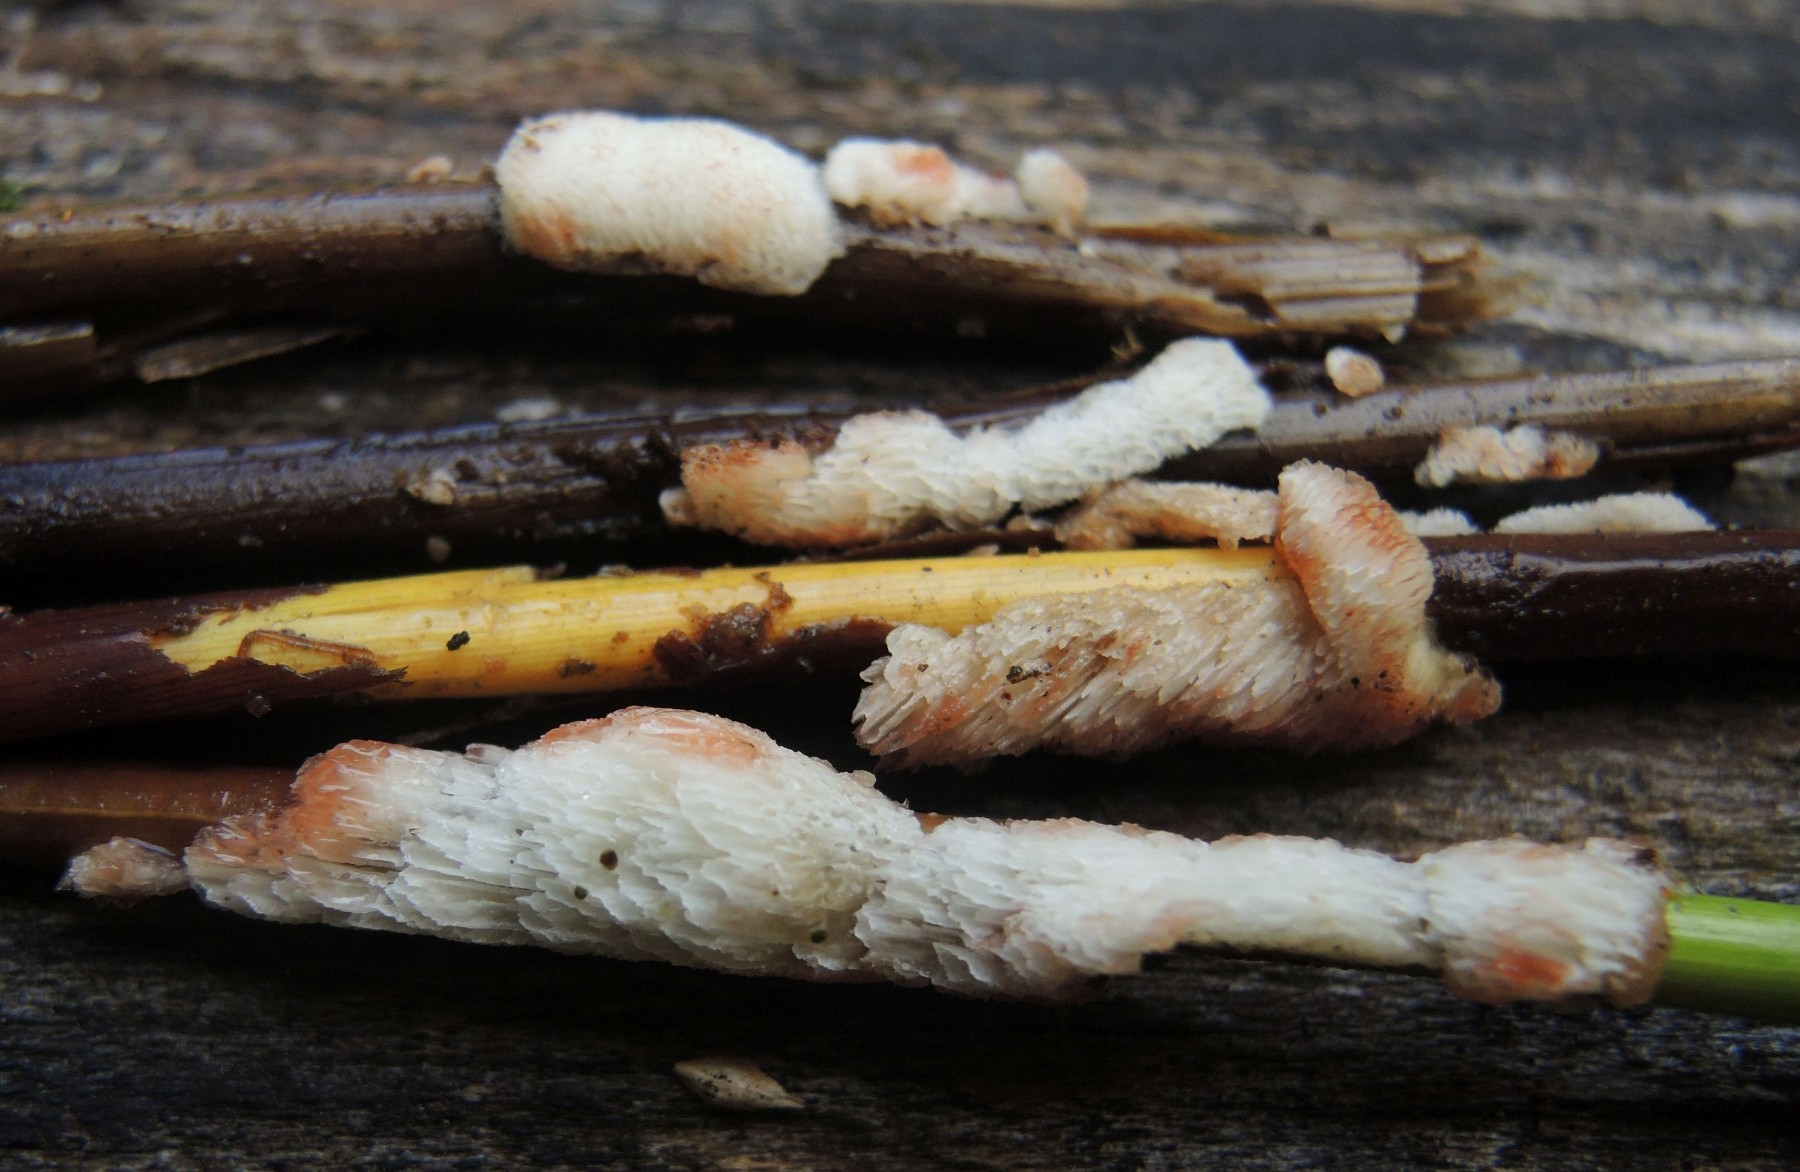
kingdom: Fungi
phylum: Basidiomycota
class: Agaricomycetes
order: Polyporales
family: Meripilaceae
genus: Rigidoporus
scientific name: Rigidoporus sanguinolentus
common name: blod-skorpeporesvamp
